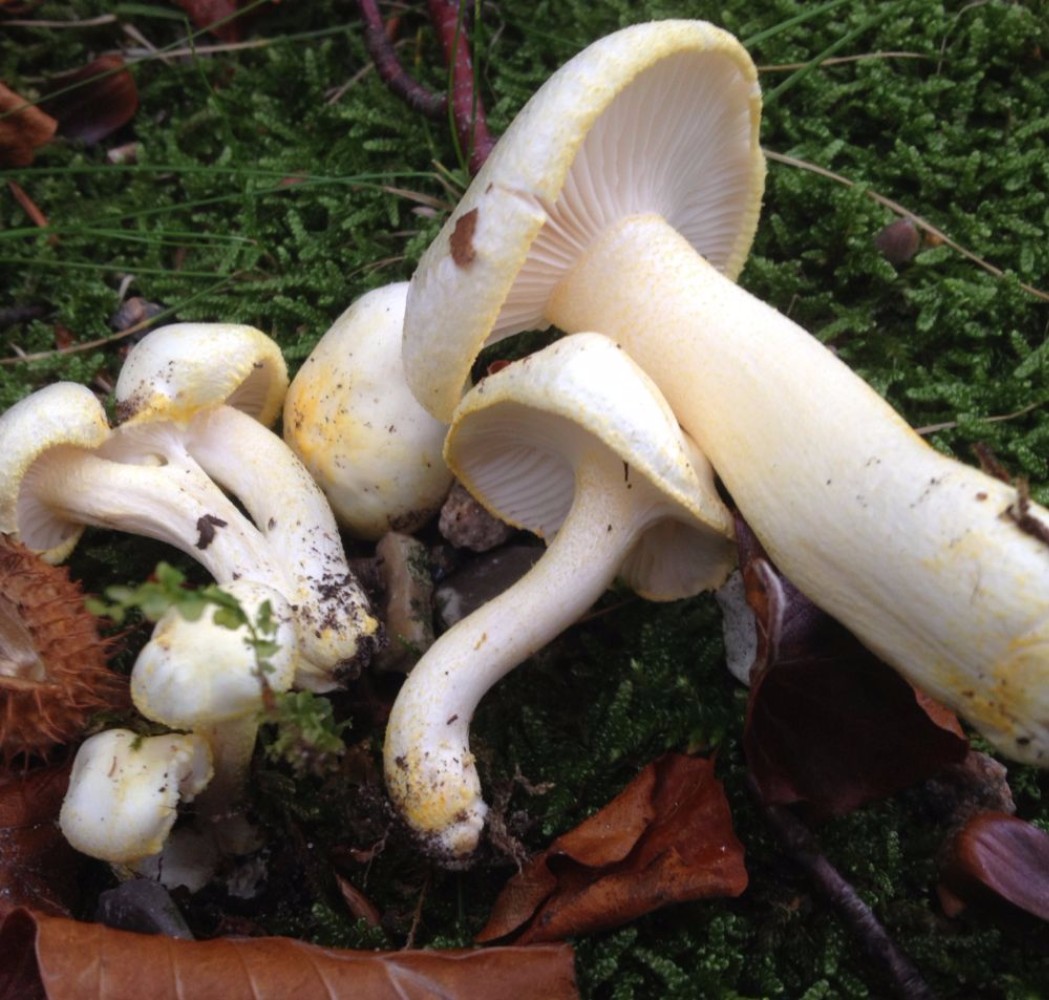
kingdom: Fungi
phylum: Basidiomycota
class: Agaricomycetes
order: Agaricales
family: Hygrophoraceae
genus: Hygrophorus
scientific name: Hygrophorus chrysodon
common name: gulfnugget sneglehat
